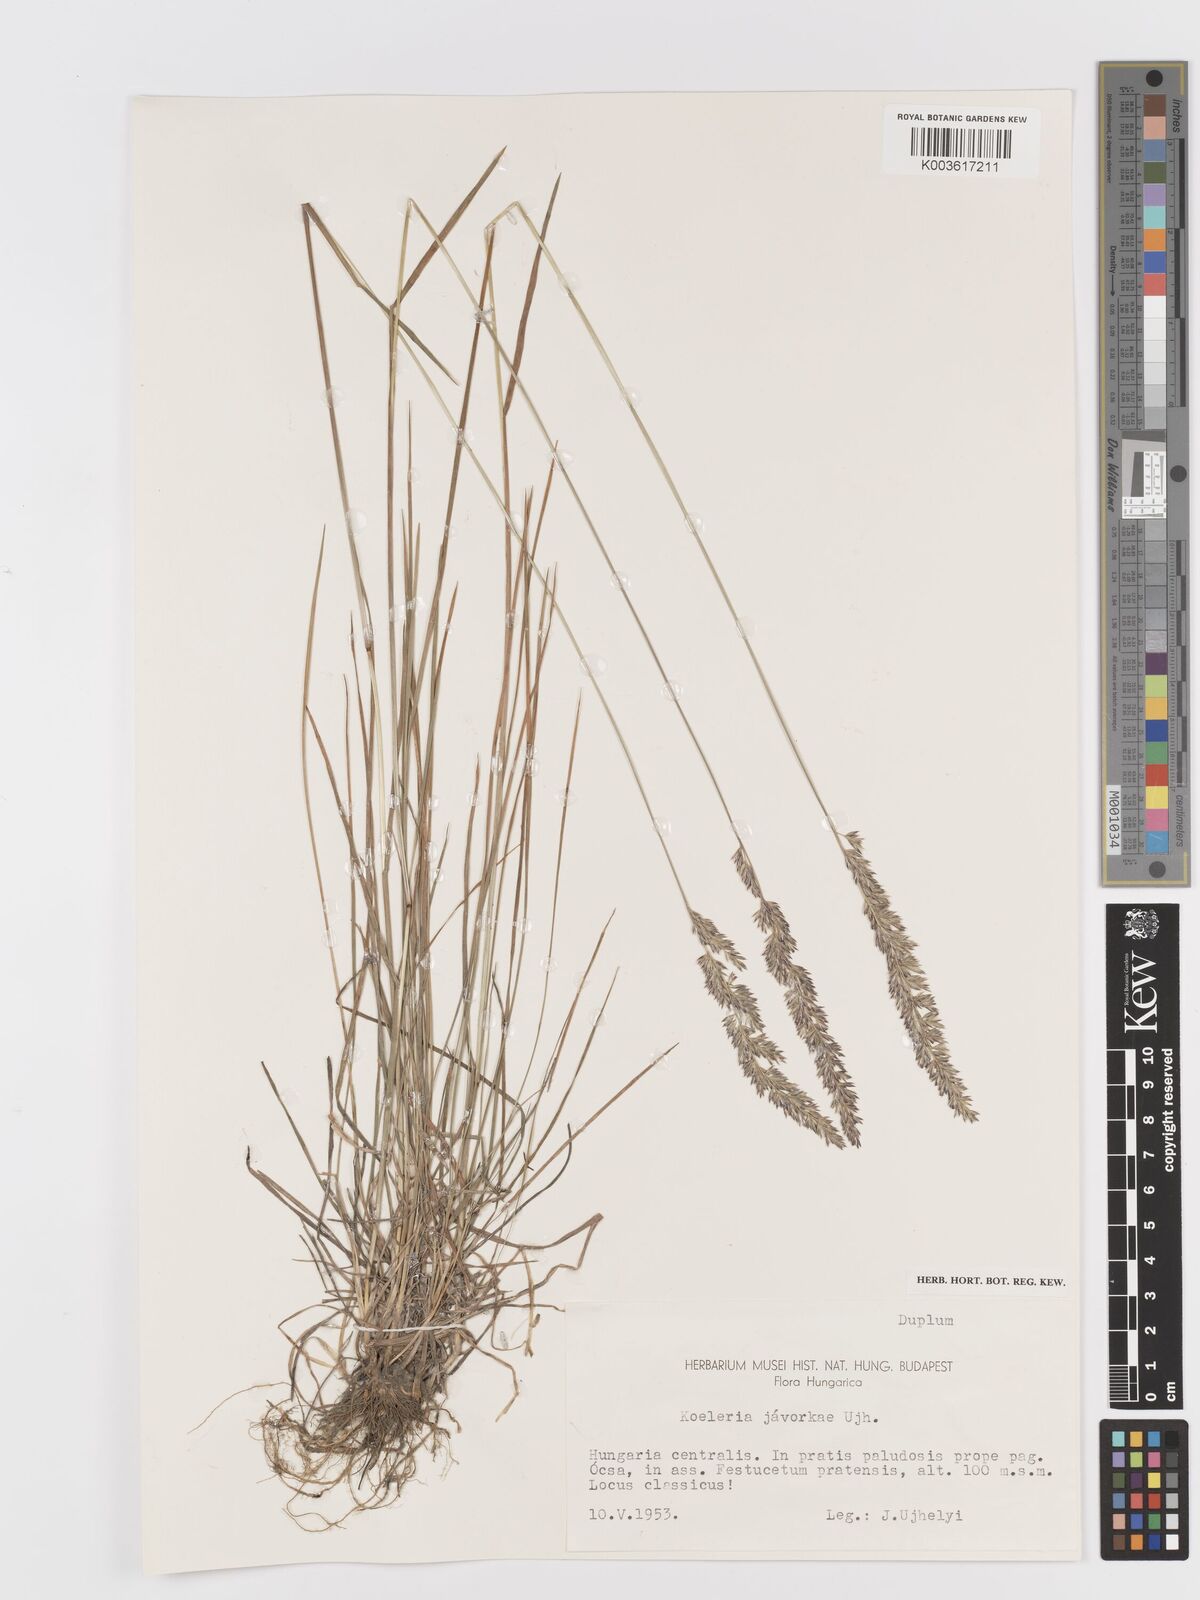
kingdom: Plantae
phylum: Tracheophyta
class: Liliopsida
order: Poales
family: Poaceae
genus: Koeleria
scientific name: Koeleria macrantha
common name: Crested hair-grass
